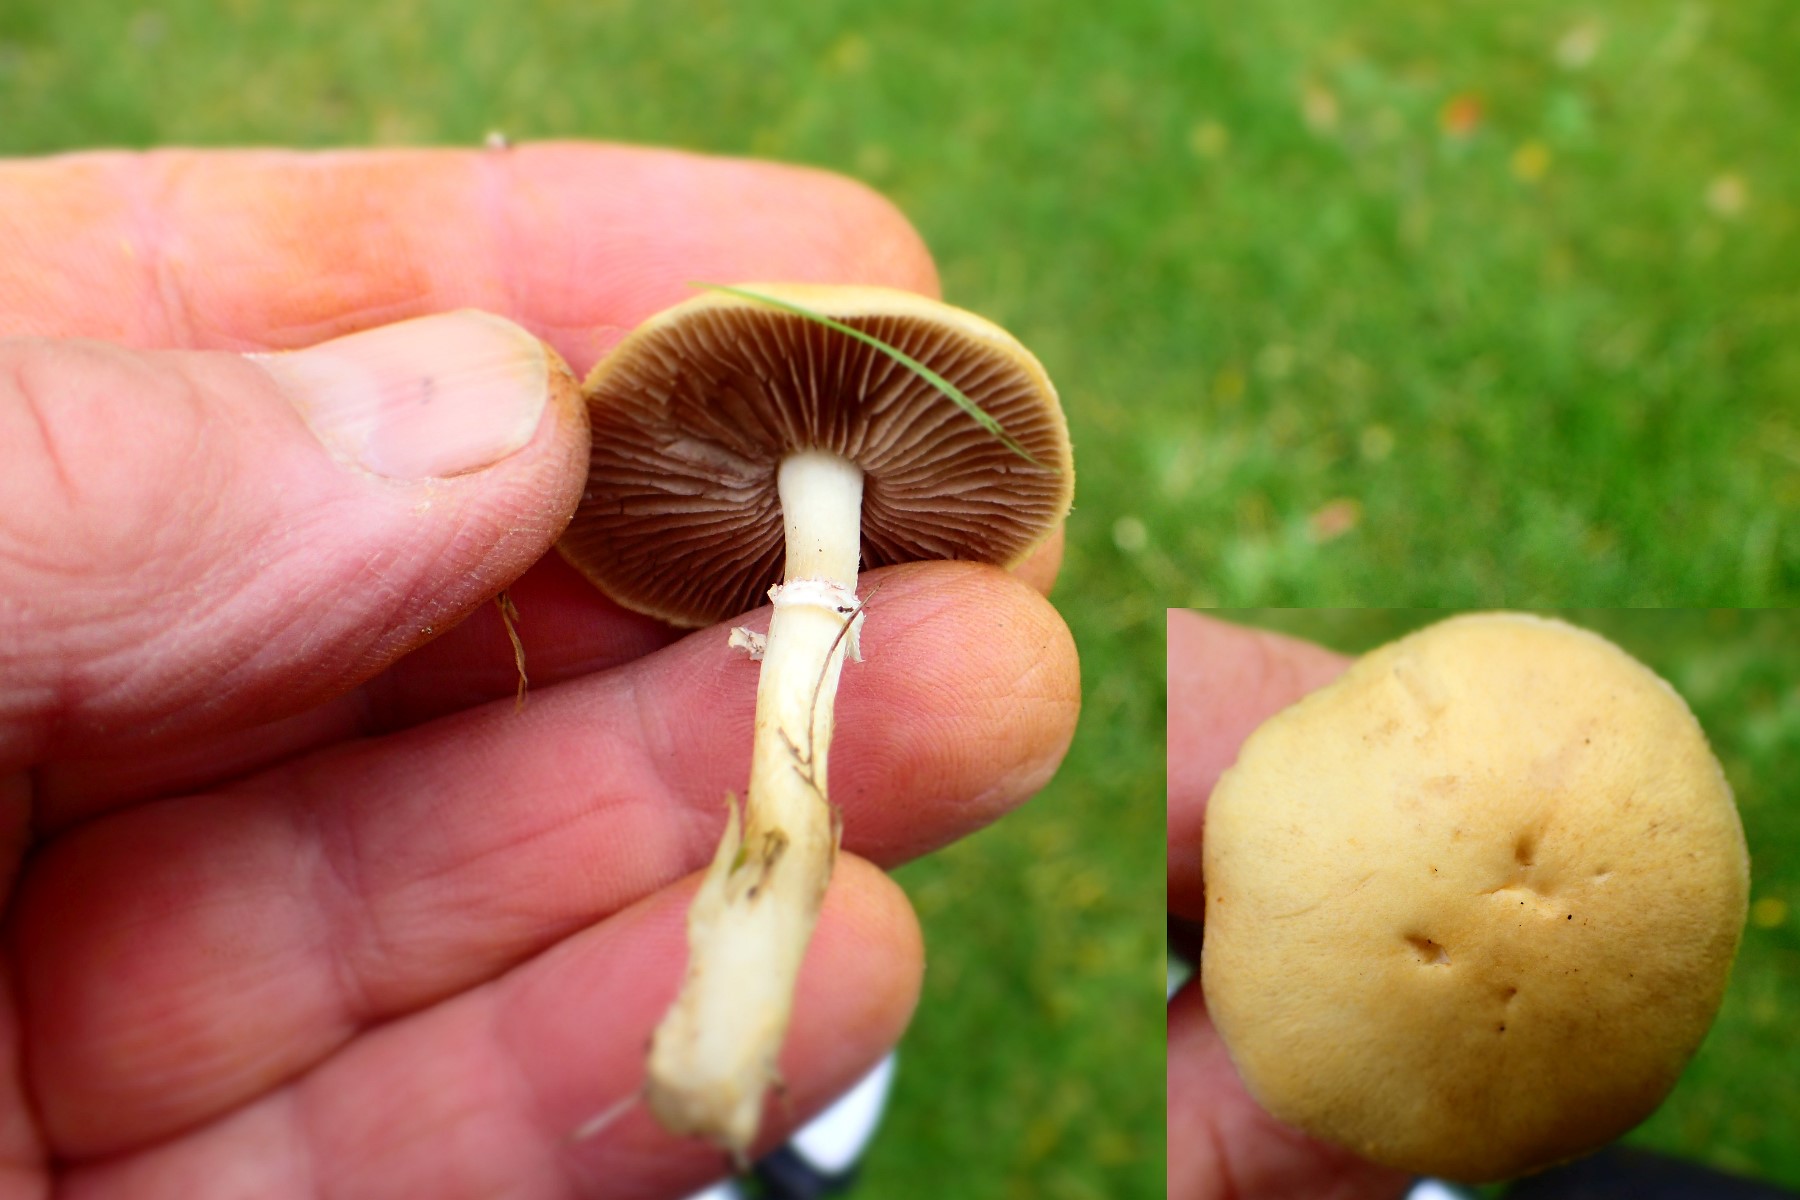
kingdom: Fungi
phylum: Basidiomycota
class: Agaricomycetes
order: Agaricales
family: Hymenogastraceae
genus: Psilocybe
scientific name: Psilocybe coronilla
